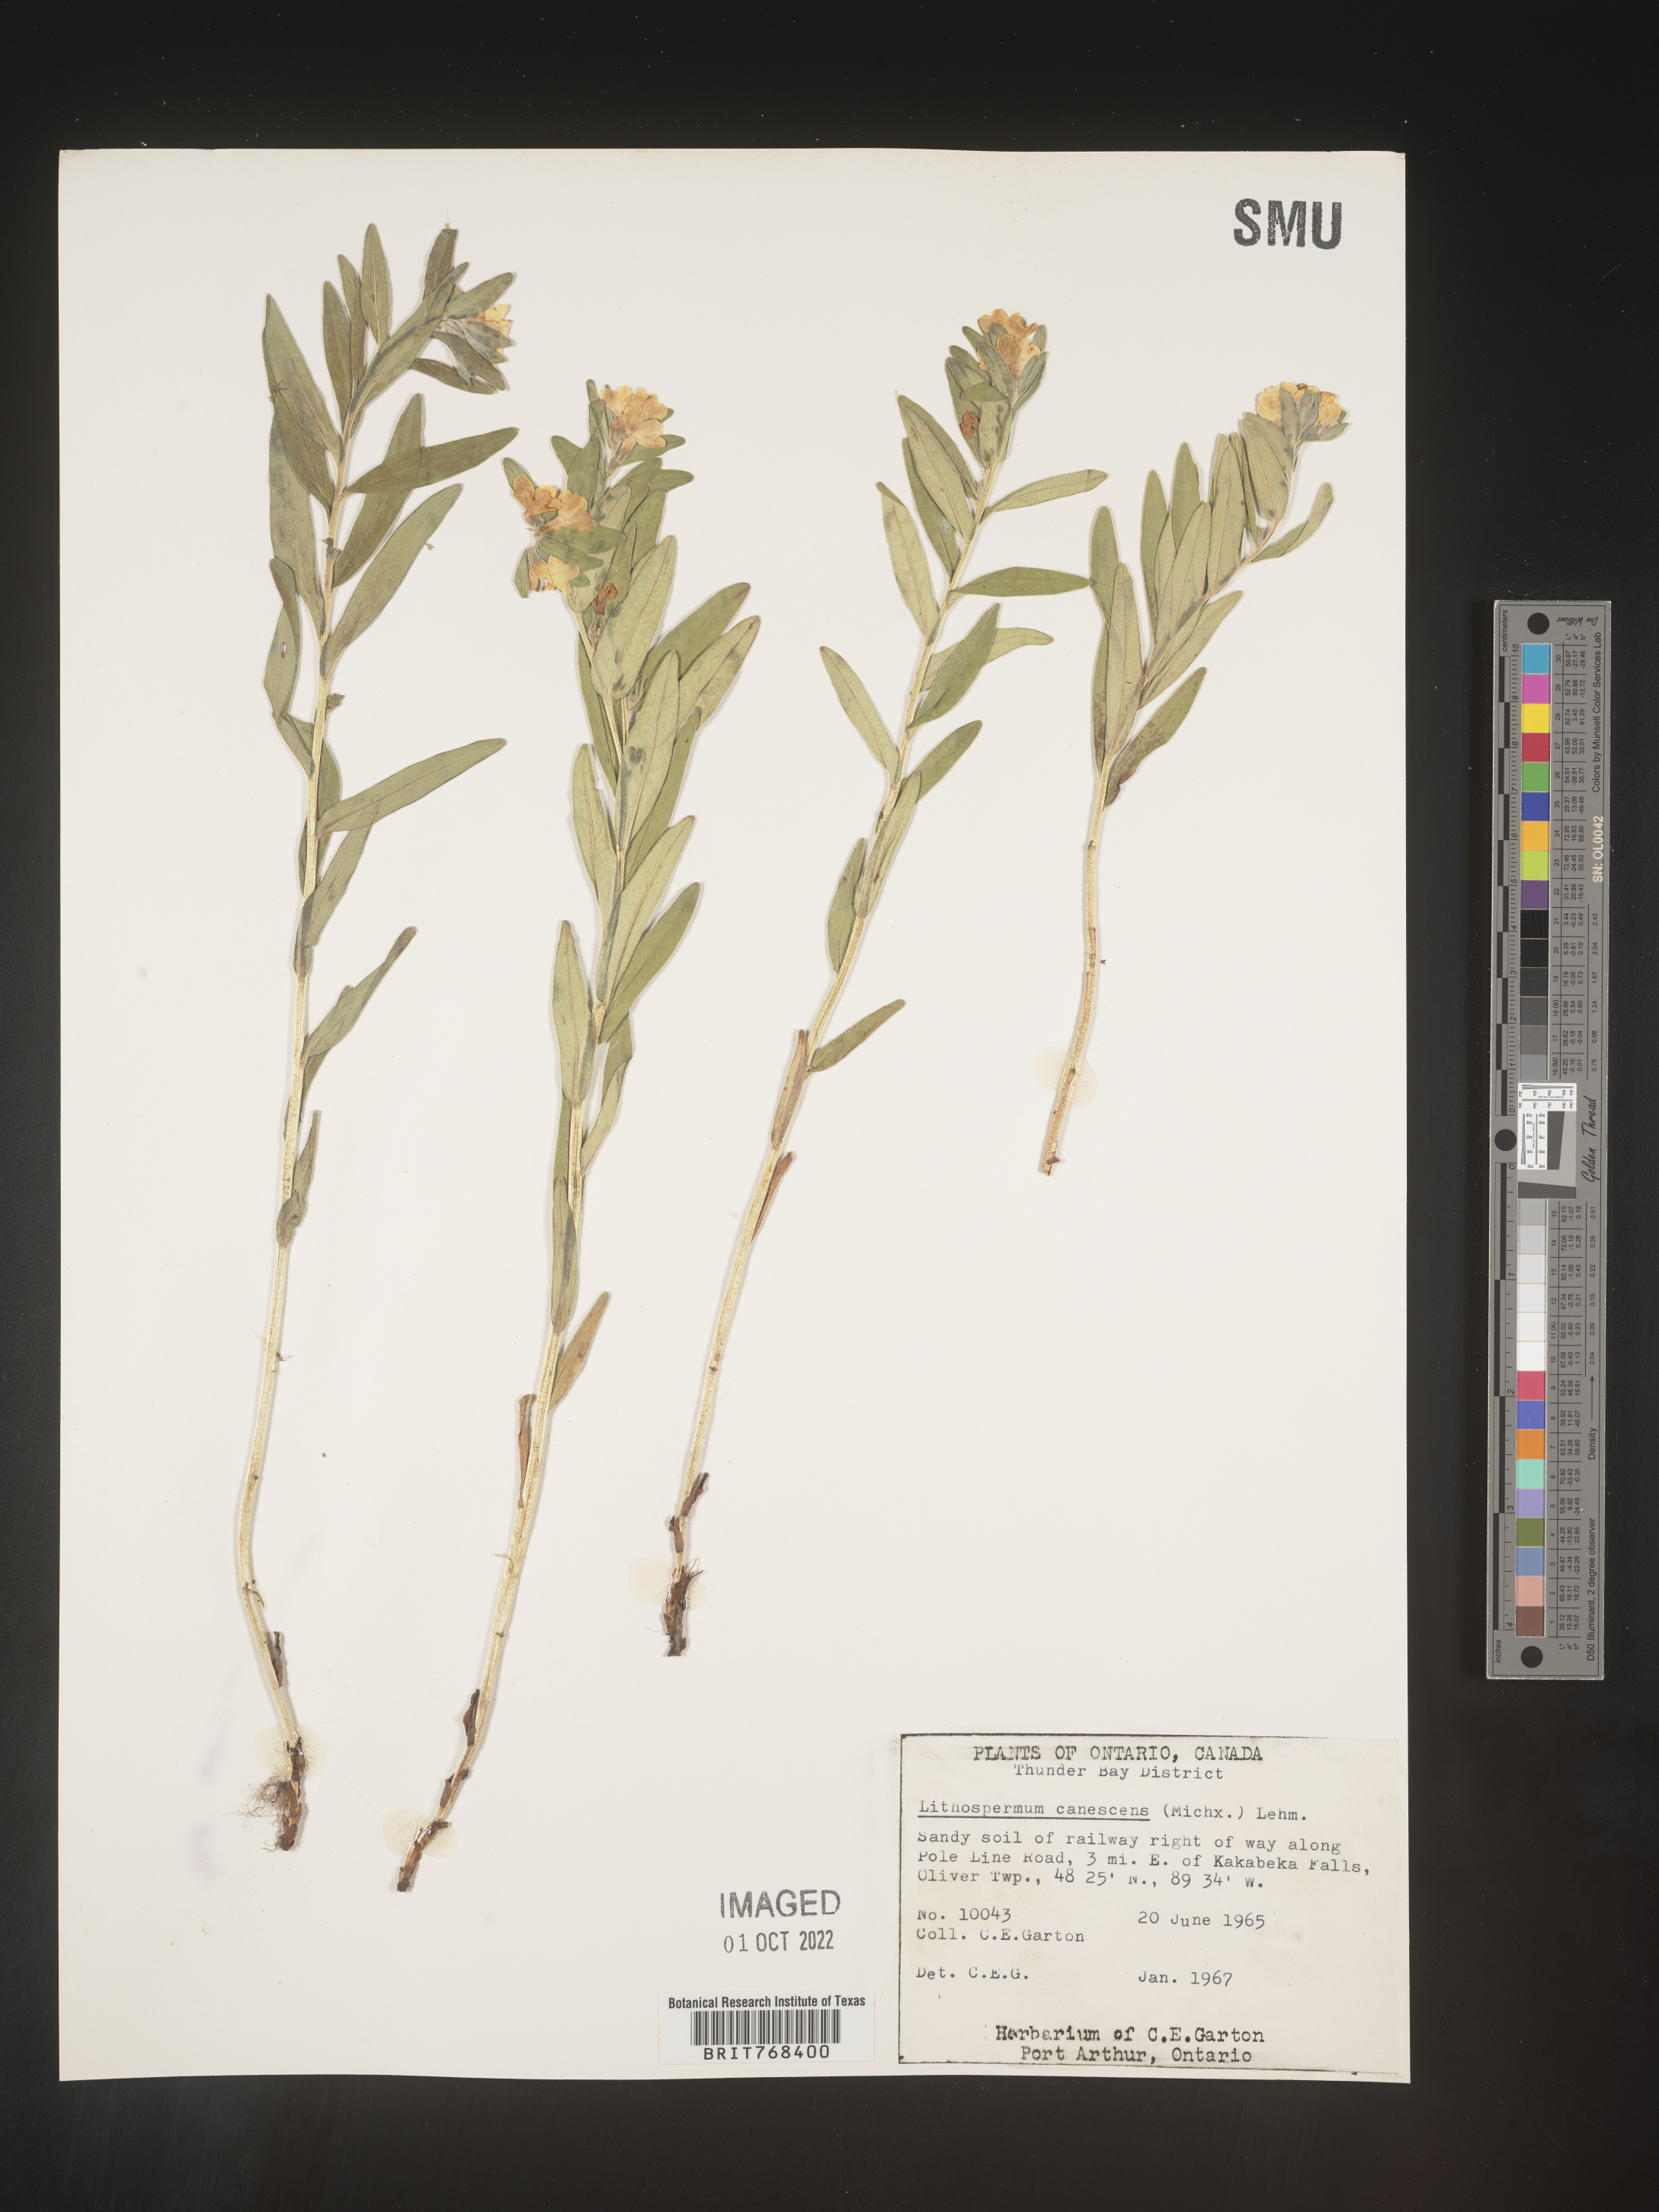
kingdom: Plantae
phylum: Tracheophyta
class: Magnoliopsida
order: Boraginales
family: Boraginaceae
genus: Lithospermum
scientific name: Lithospermum canescens
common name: Hoary puccoon
